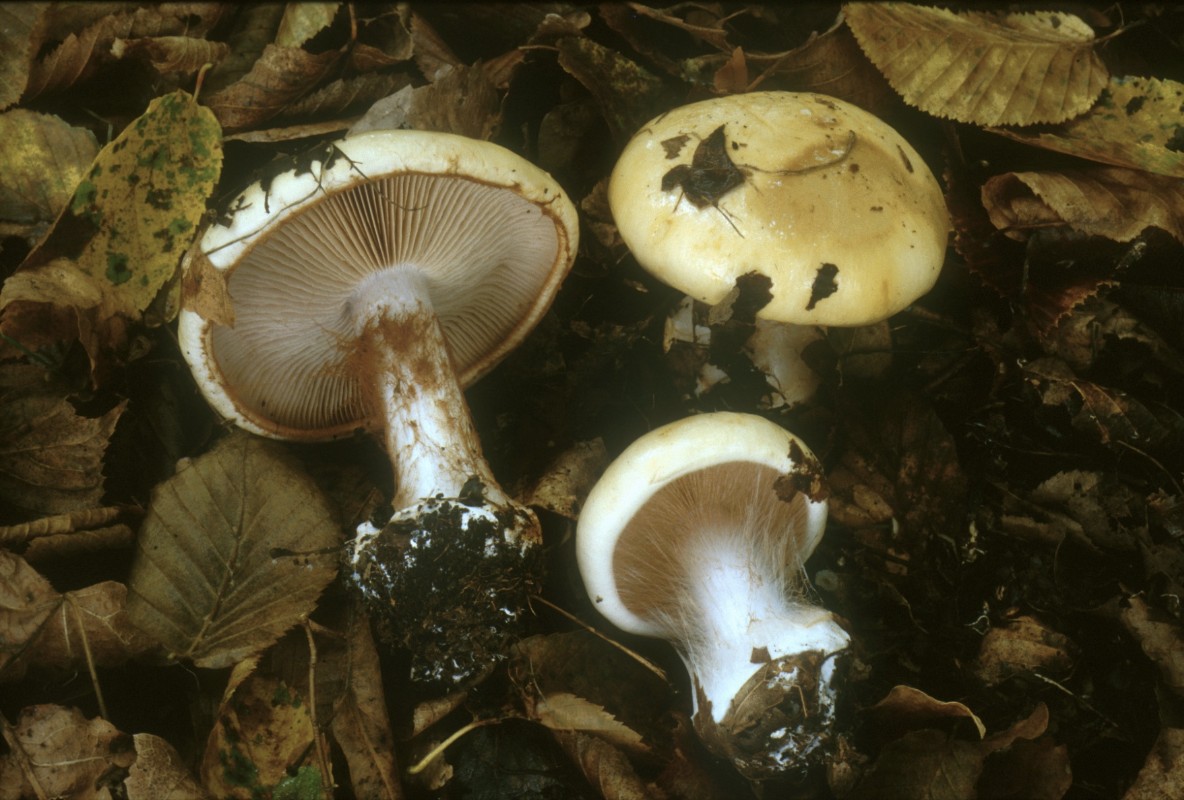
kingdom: Fungi
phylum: Basidiomycota
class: Agaricomycetes
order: Agaricales
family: Cortinariaceae
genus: Cortinarius
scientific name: Cortinarius caroviolaceus
